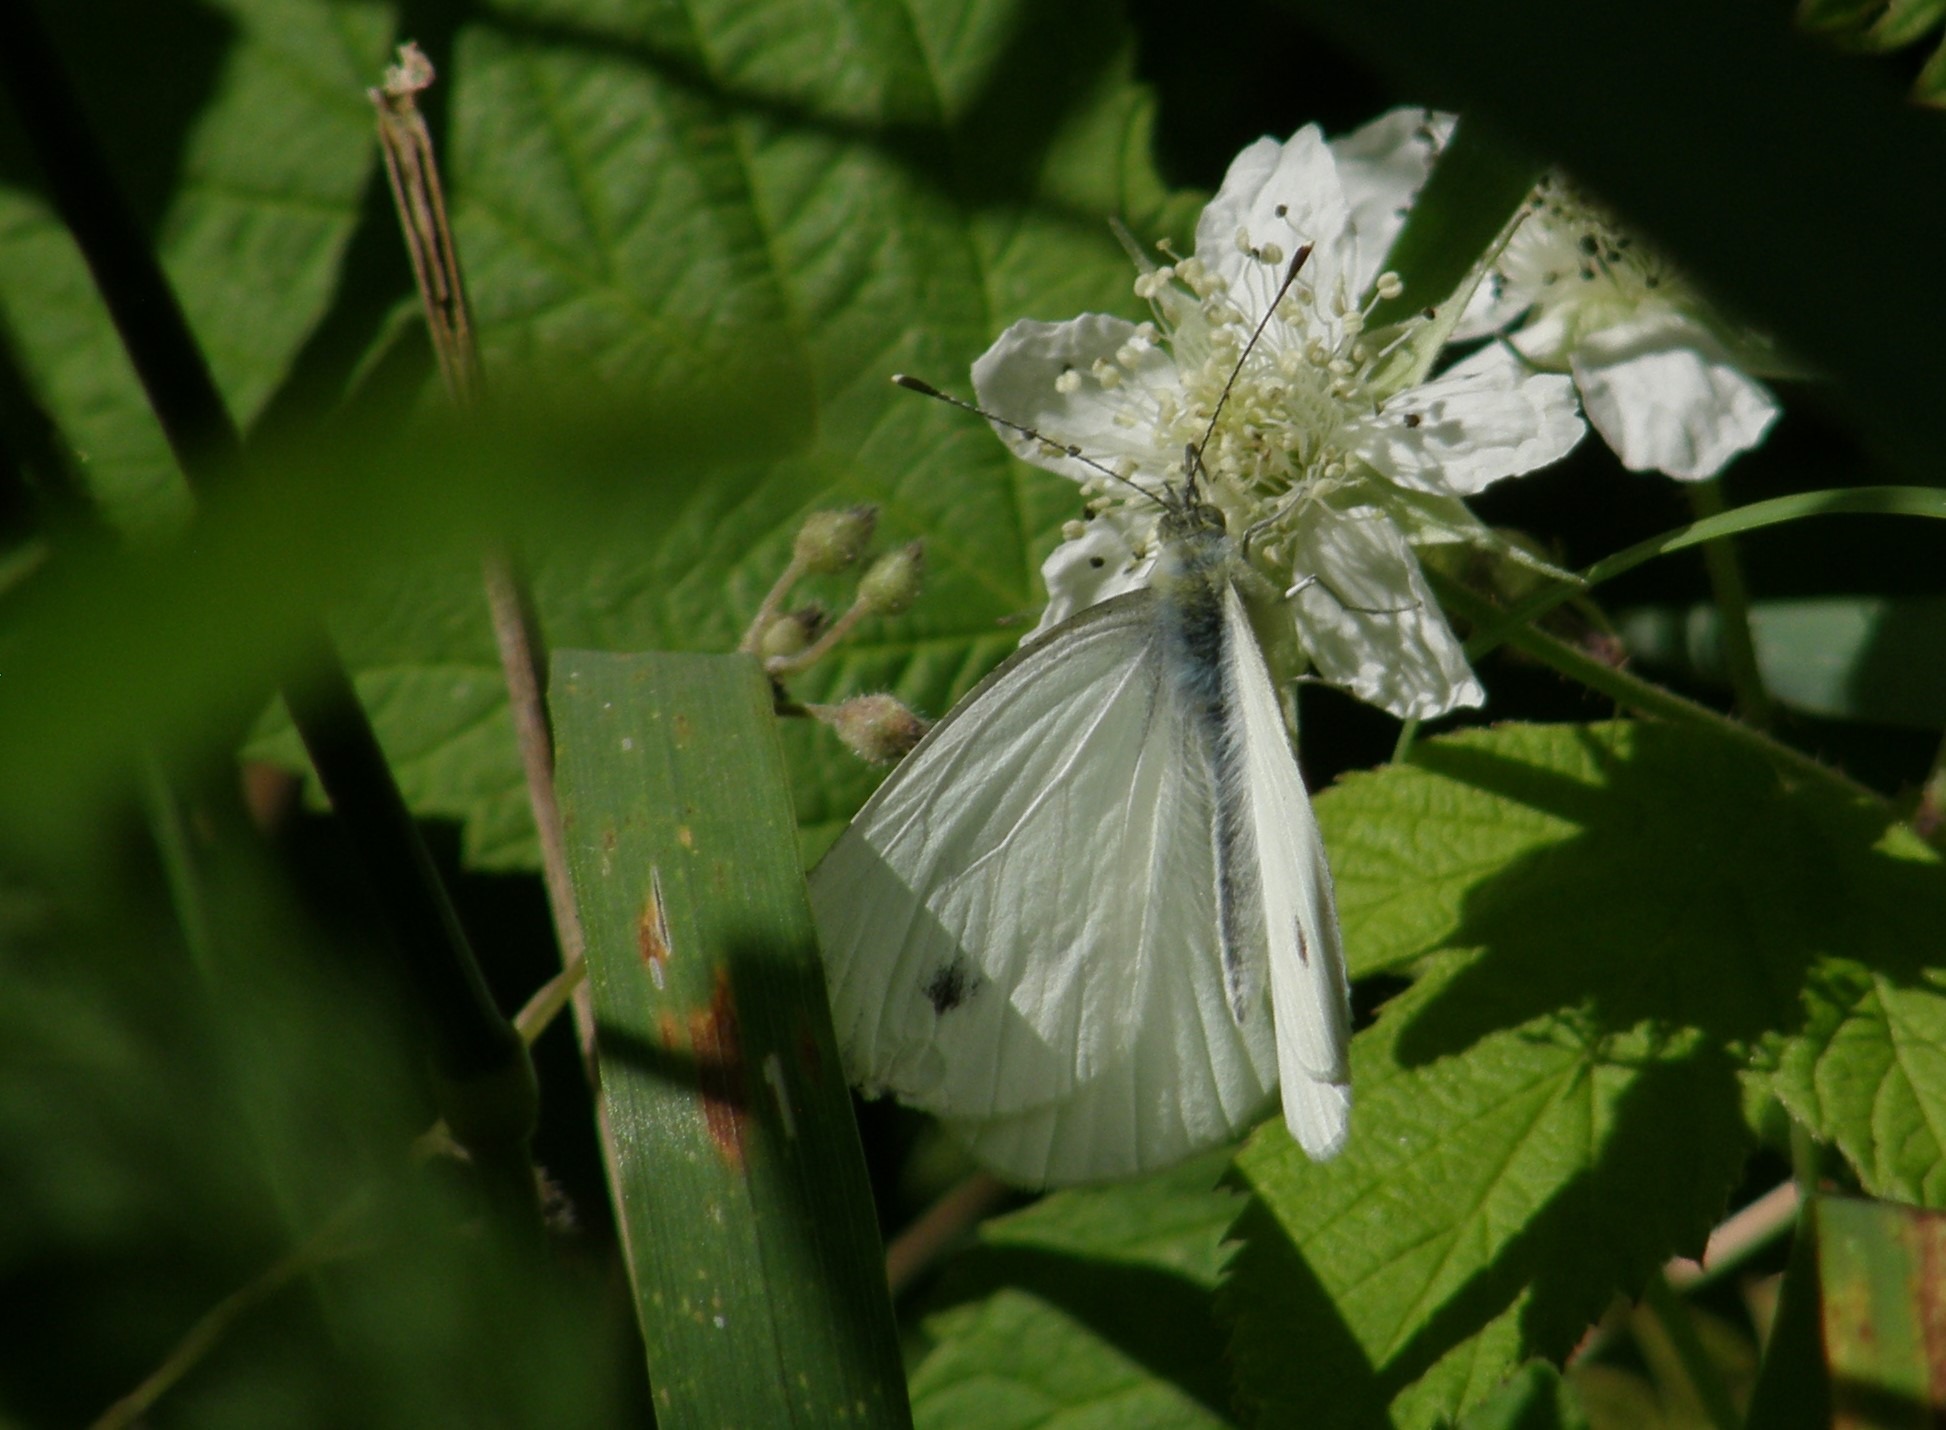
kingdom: Animalia
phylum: Arthropoda
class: Insecta
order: Lepidoptera
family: Pieridae
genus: Pieris
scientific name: Pieris rapae
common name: Lille kålsommerfugl
